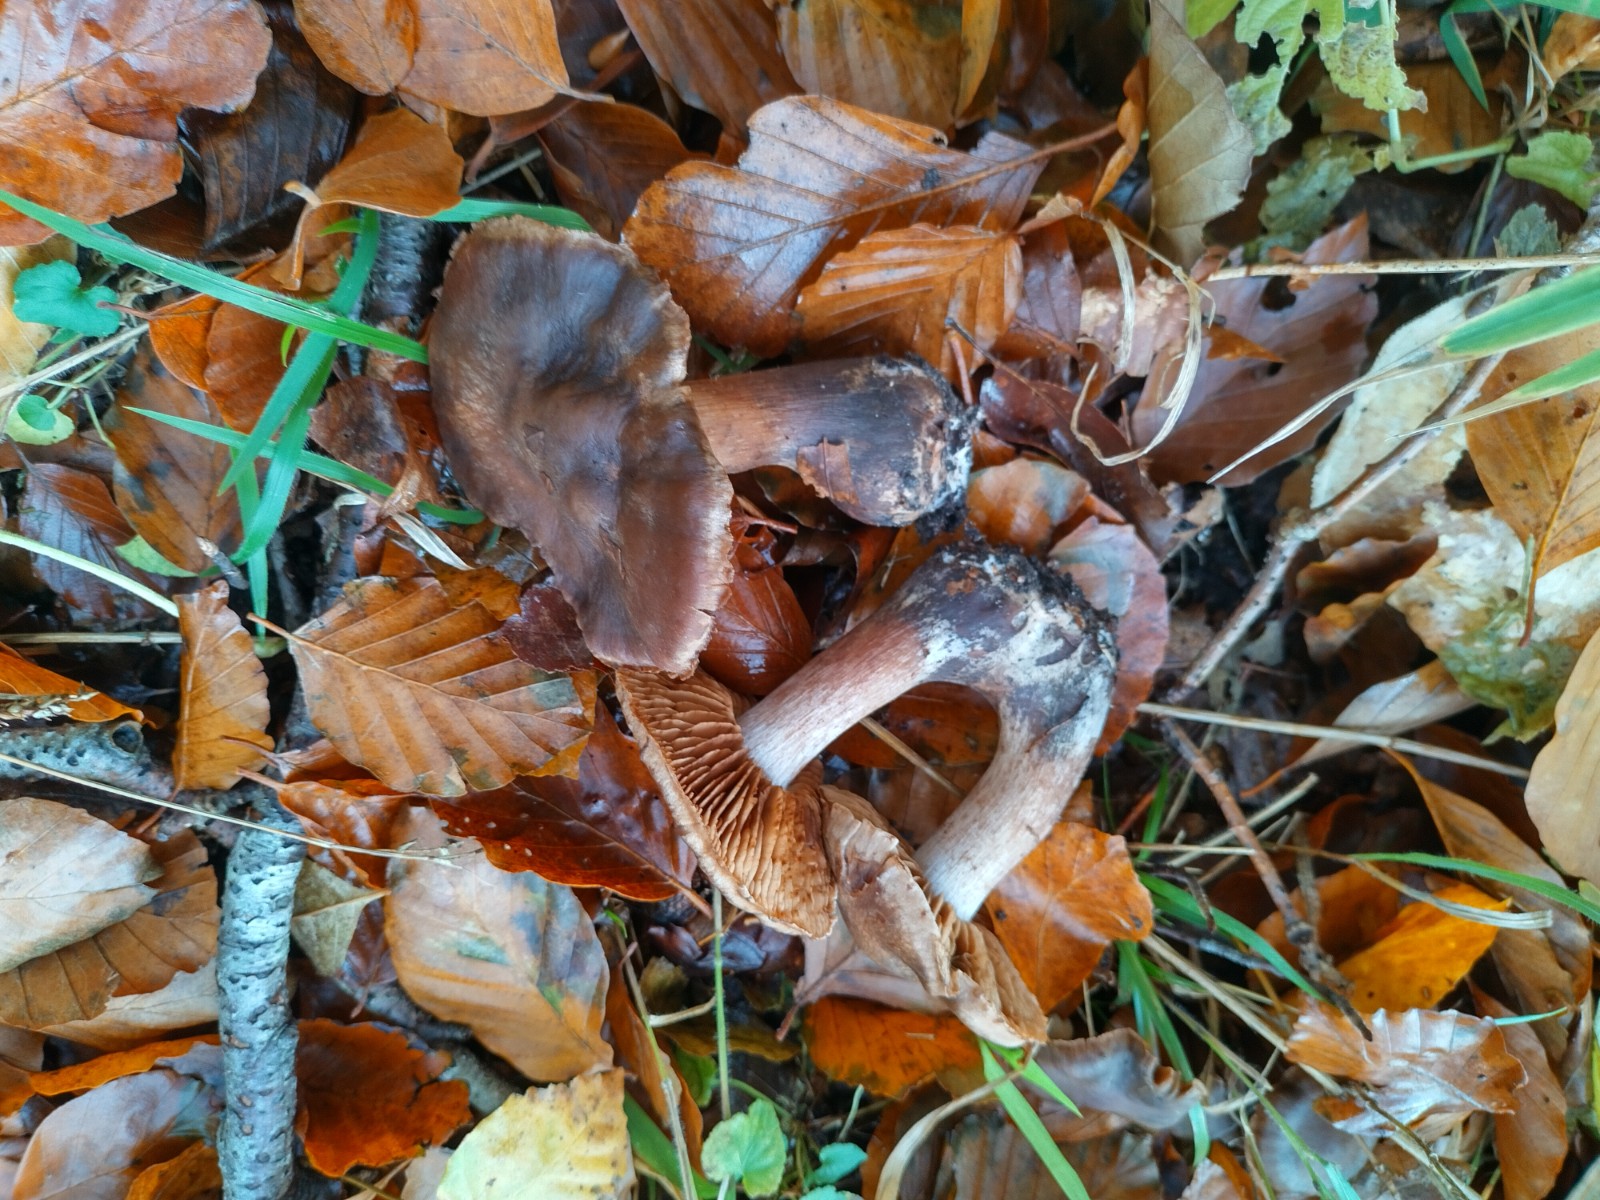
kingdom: Fungi
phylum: Basidiomycota
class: Agaricomycetes
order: Agaricales
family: Cortinariaceae
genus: Cortinarius
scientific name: Cortinarius
